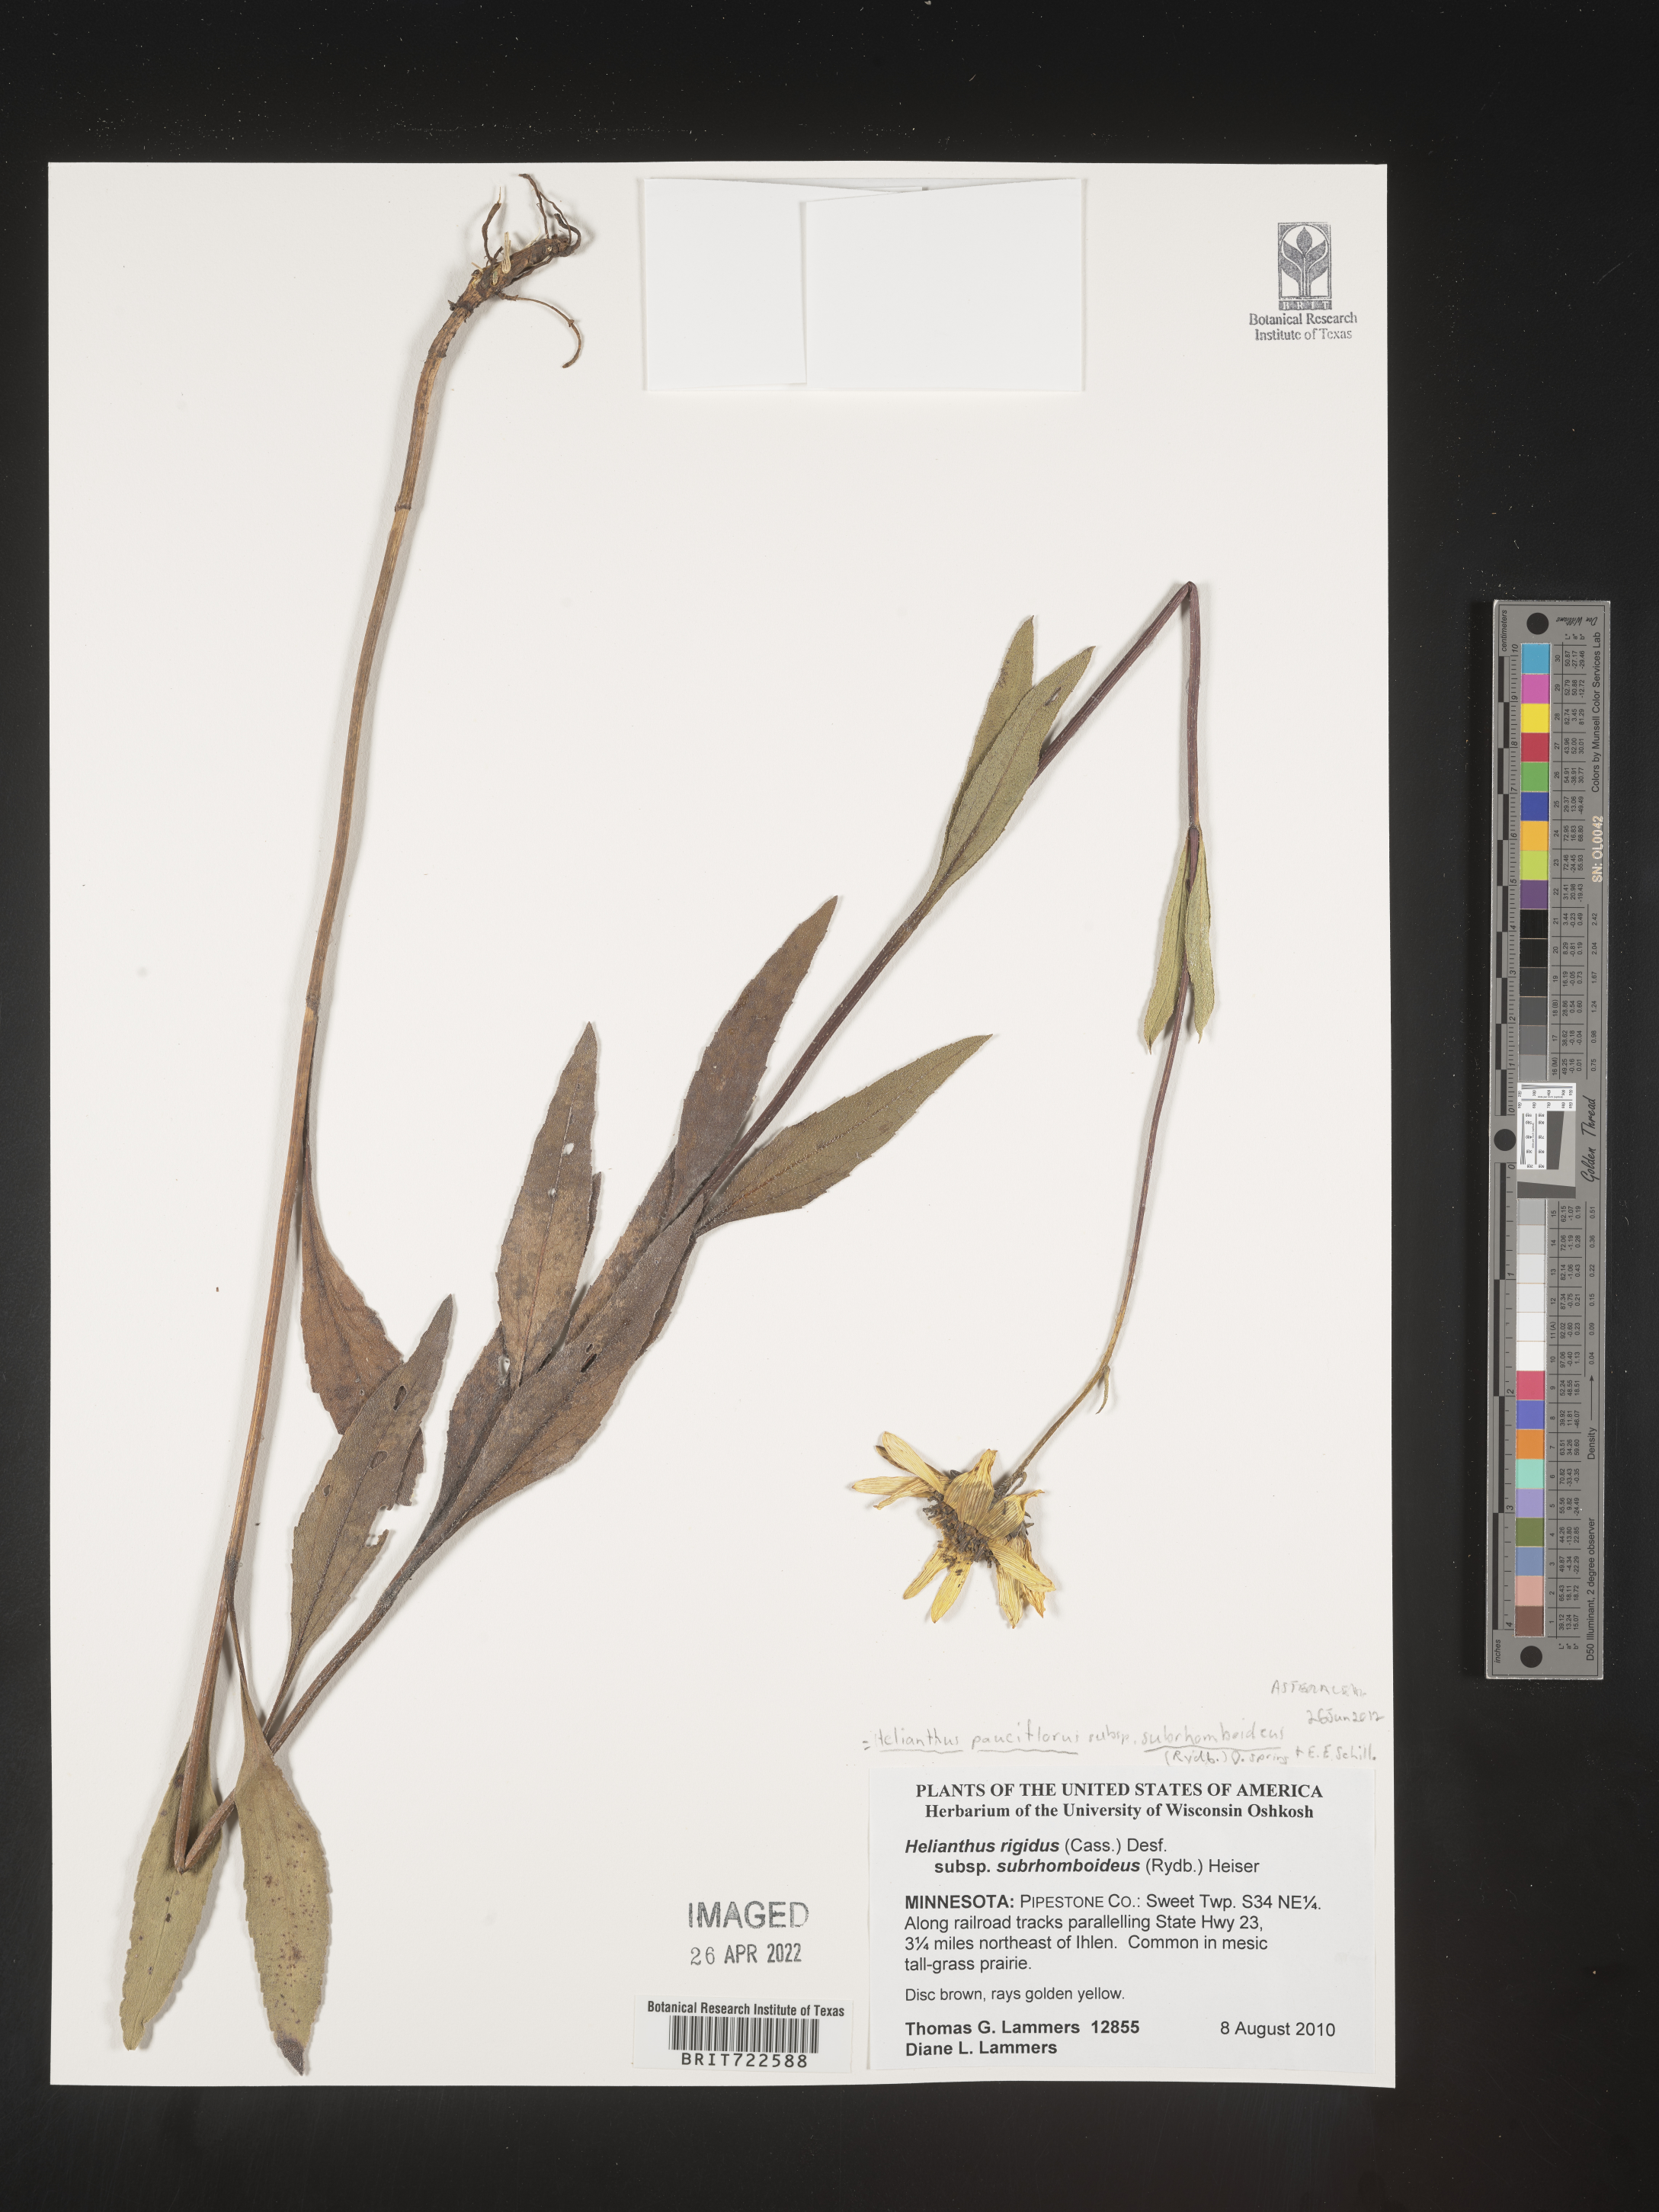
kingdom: Plantae
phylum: Tracheophyta
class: Magnoliopsida
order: Asterales
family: Asteraceae
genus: Helianthus
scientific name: Helianthus pauciflorus
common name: Stiff sunflower
